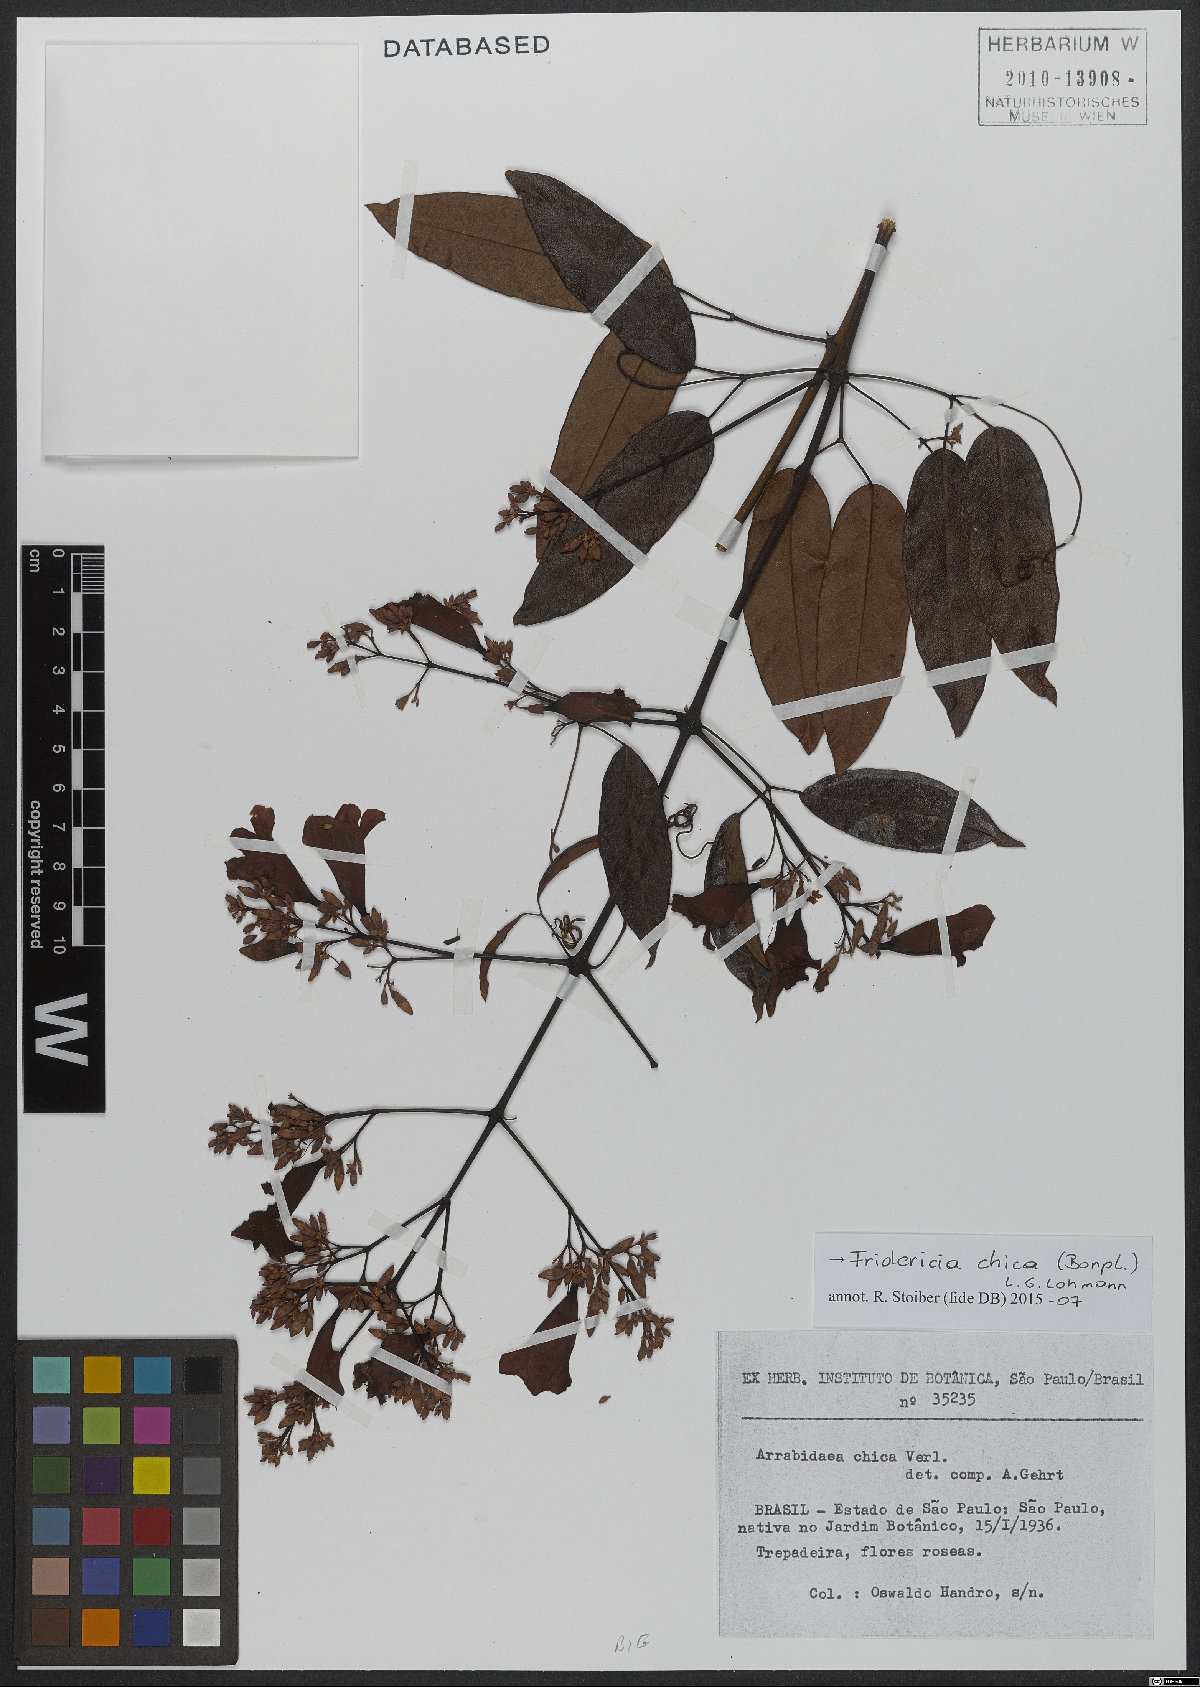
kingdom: Plantae
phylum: Tracheophyta
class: Magnoliopsida
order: Lamiales
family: Bignoniaceae
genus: Fridericia
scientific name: Fridericia chica
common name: Cricketvine
